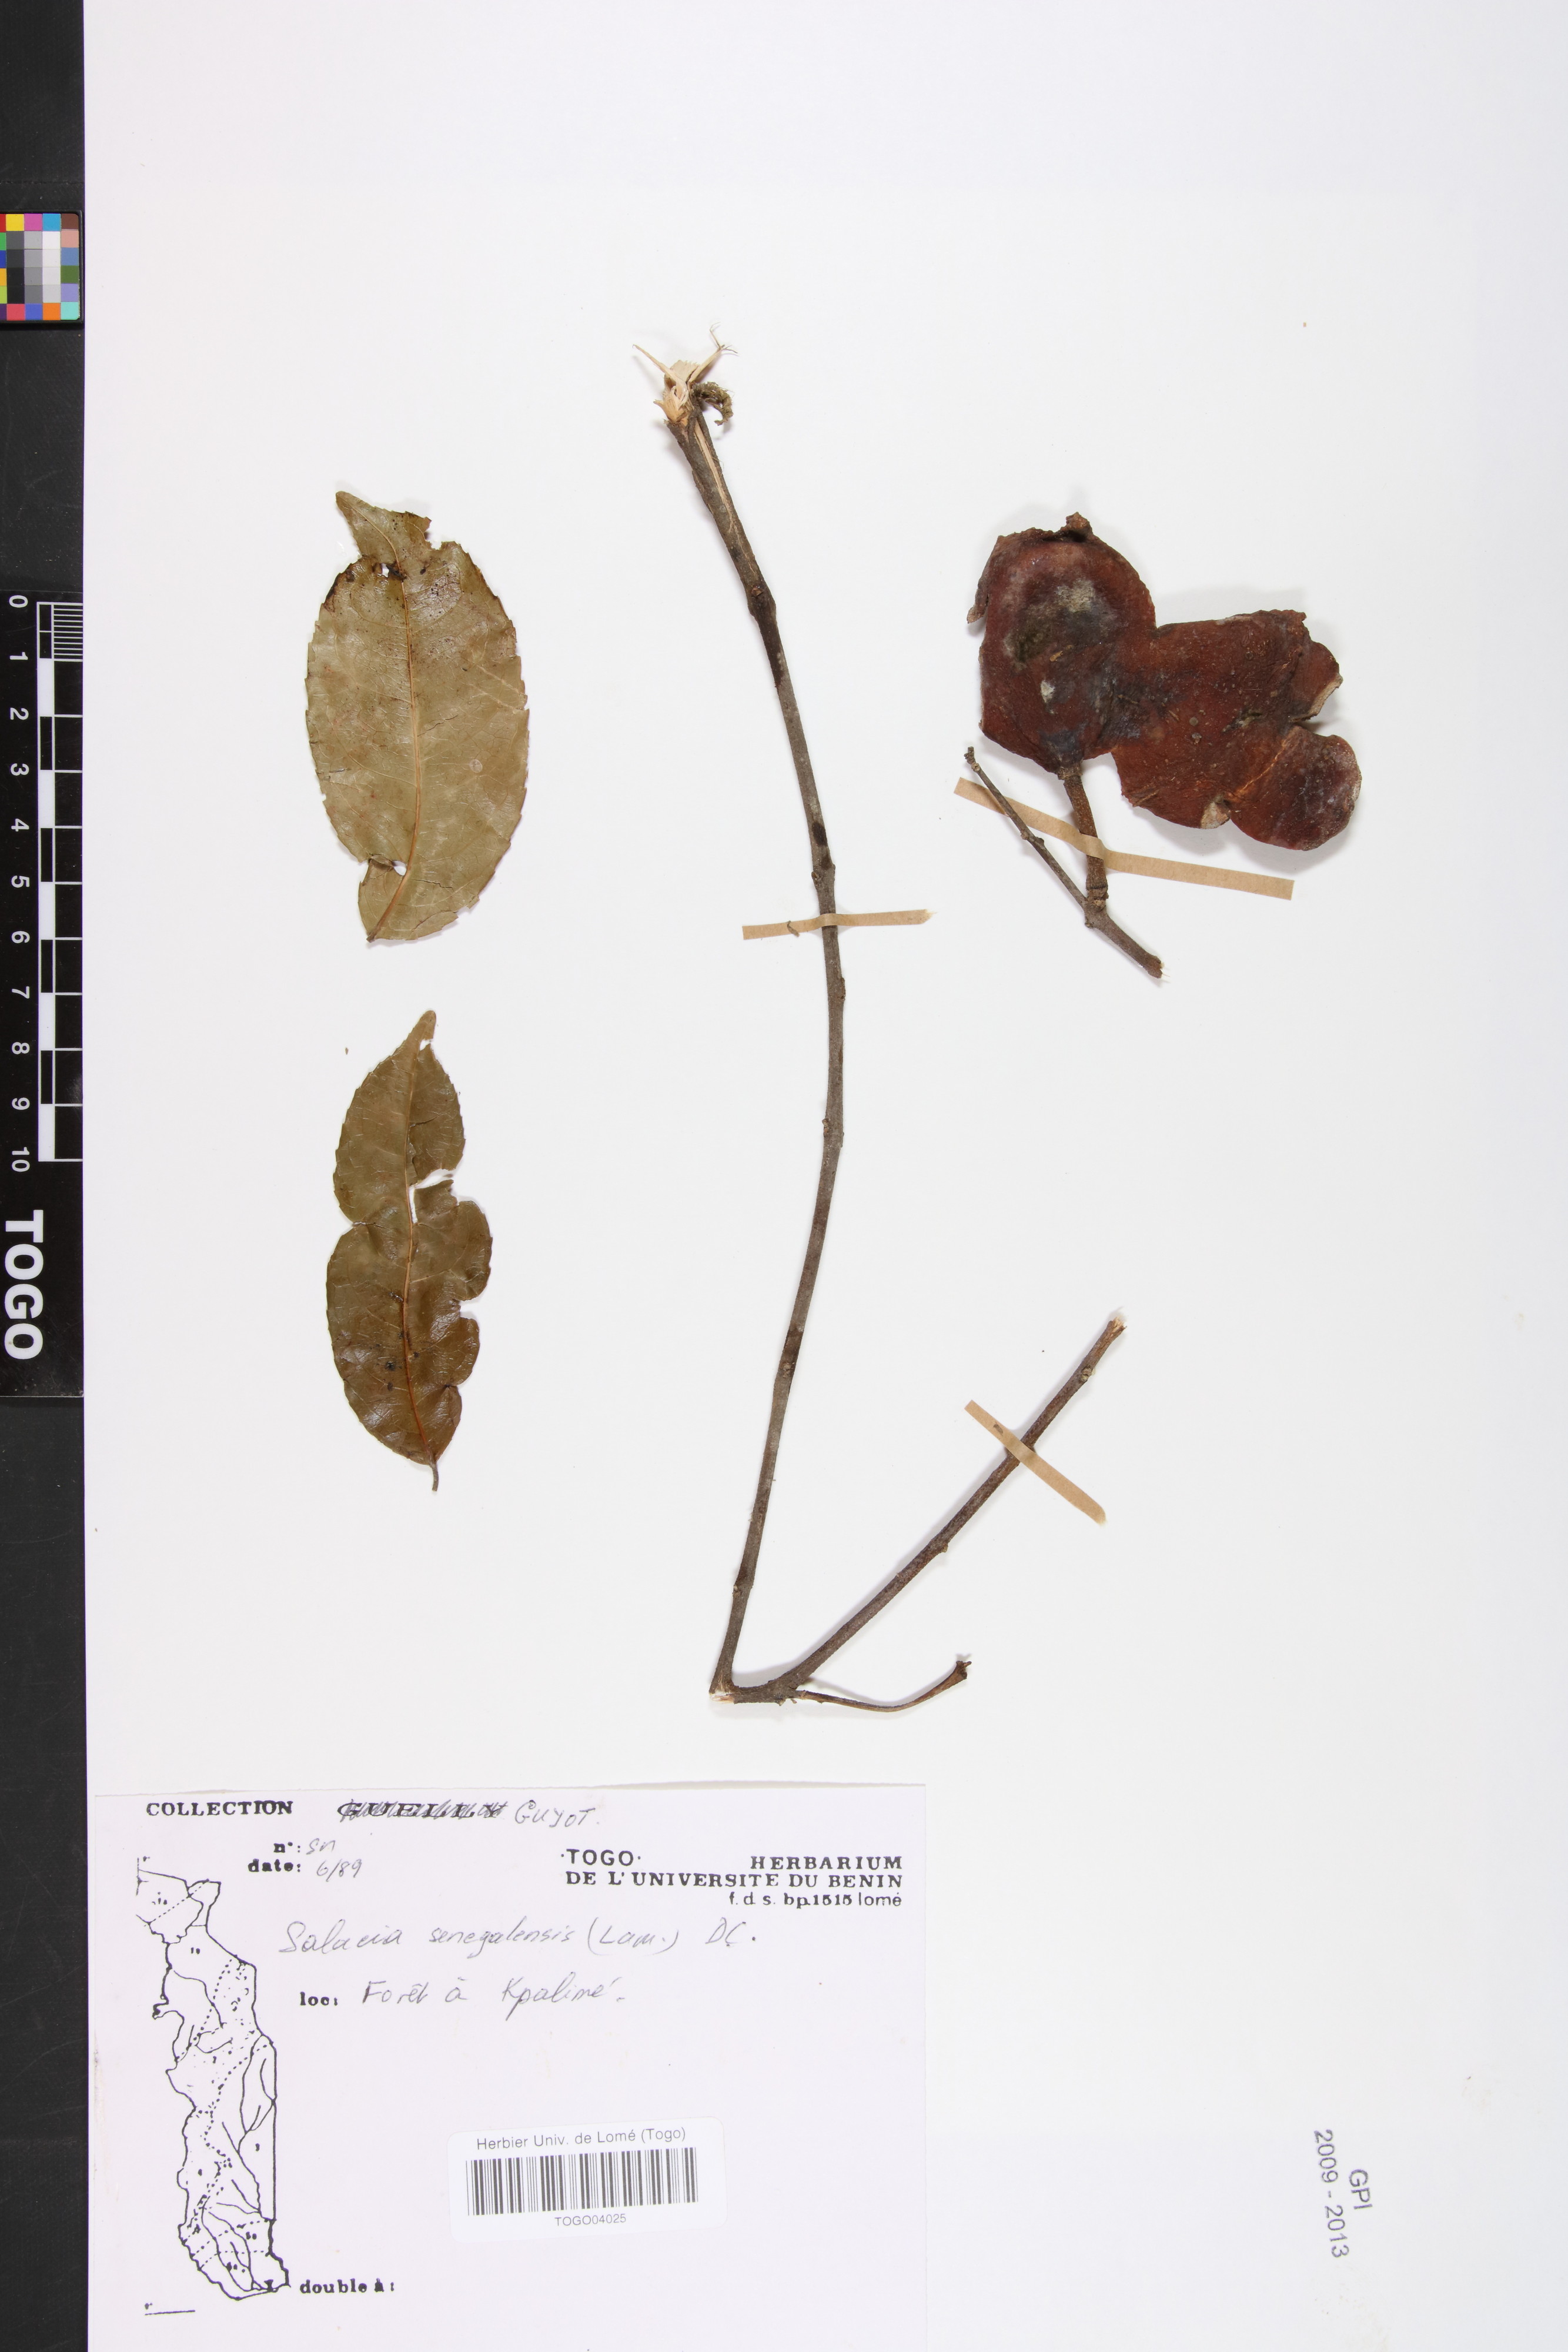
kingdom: Plantae
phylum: Tracheophyta
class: Magnoliopsida
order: Celastrales
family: Celastraceae
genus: Salacia
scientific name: Salacia senegalensis
